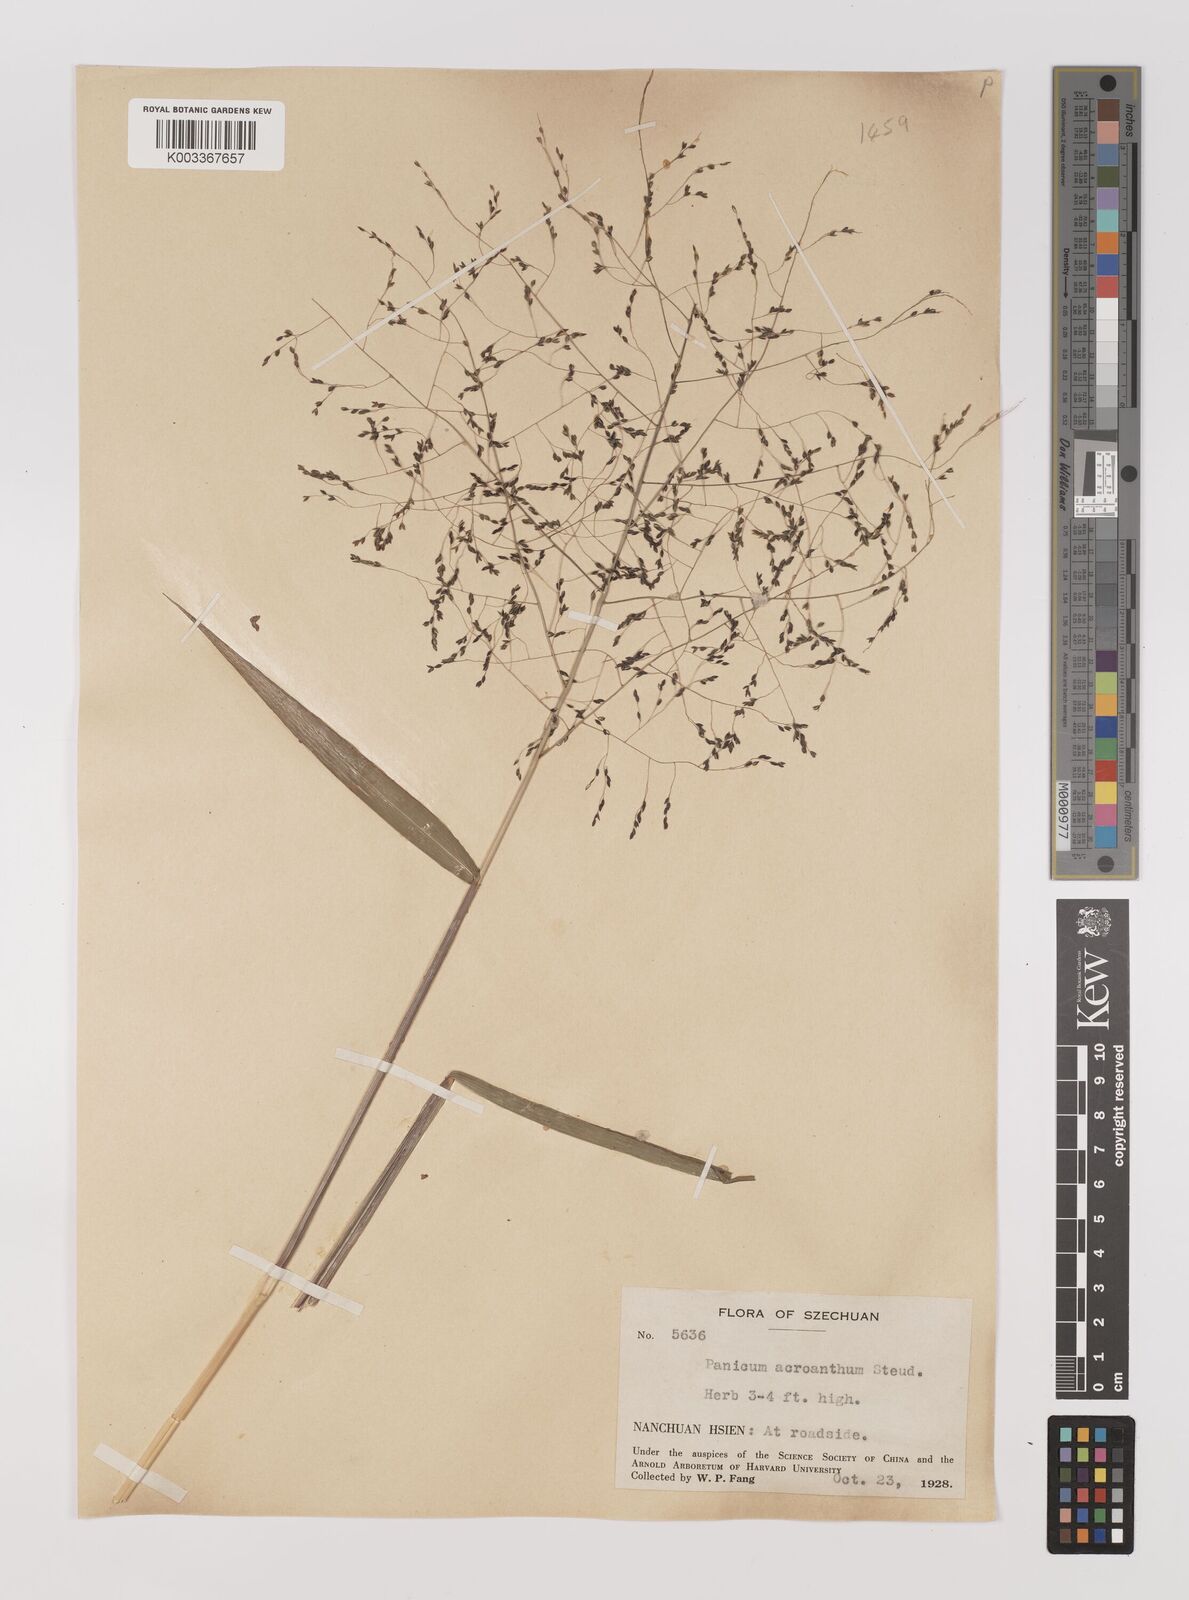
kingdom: Plantae
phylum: Tracheophyta
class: Liliopsida
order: Poales
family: Poaceae
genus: Panicum
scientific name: Panicum bisulcatum
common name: Japanese panicgrass
